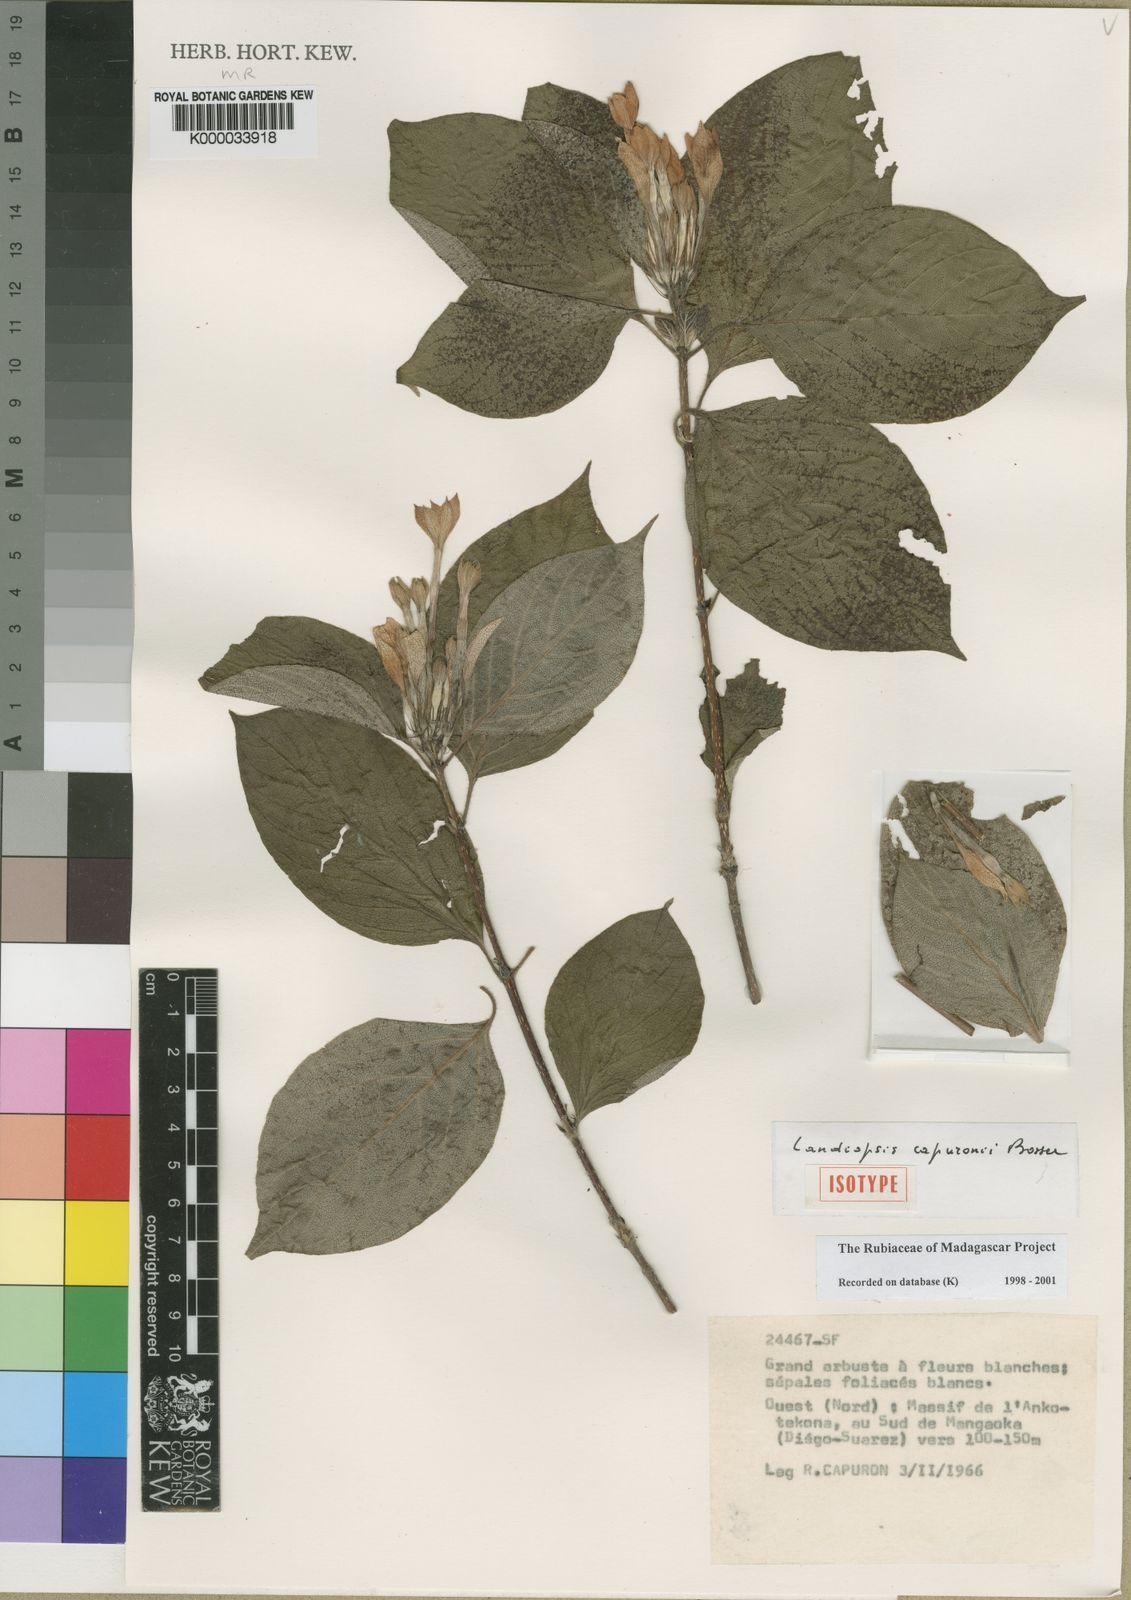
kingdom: Plantae
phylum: Tracheophyta
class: Magnoliopsida
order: Gentianales
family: Rubiaceae
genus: Landiopsis
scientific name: Landiopsis capuronii
